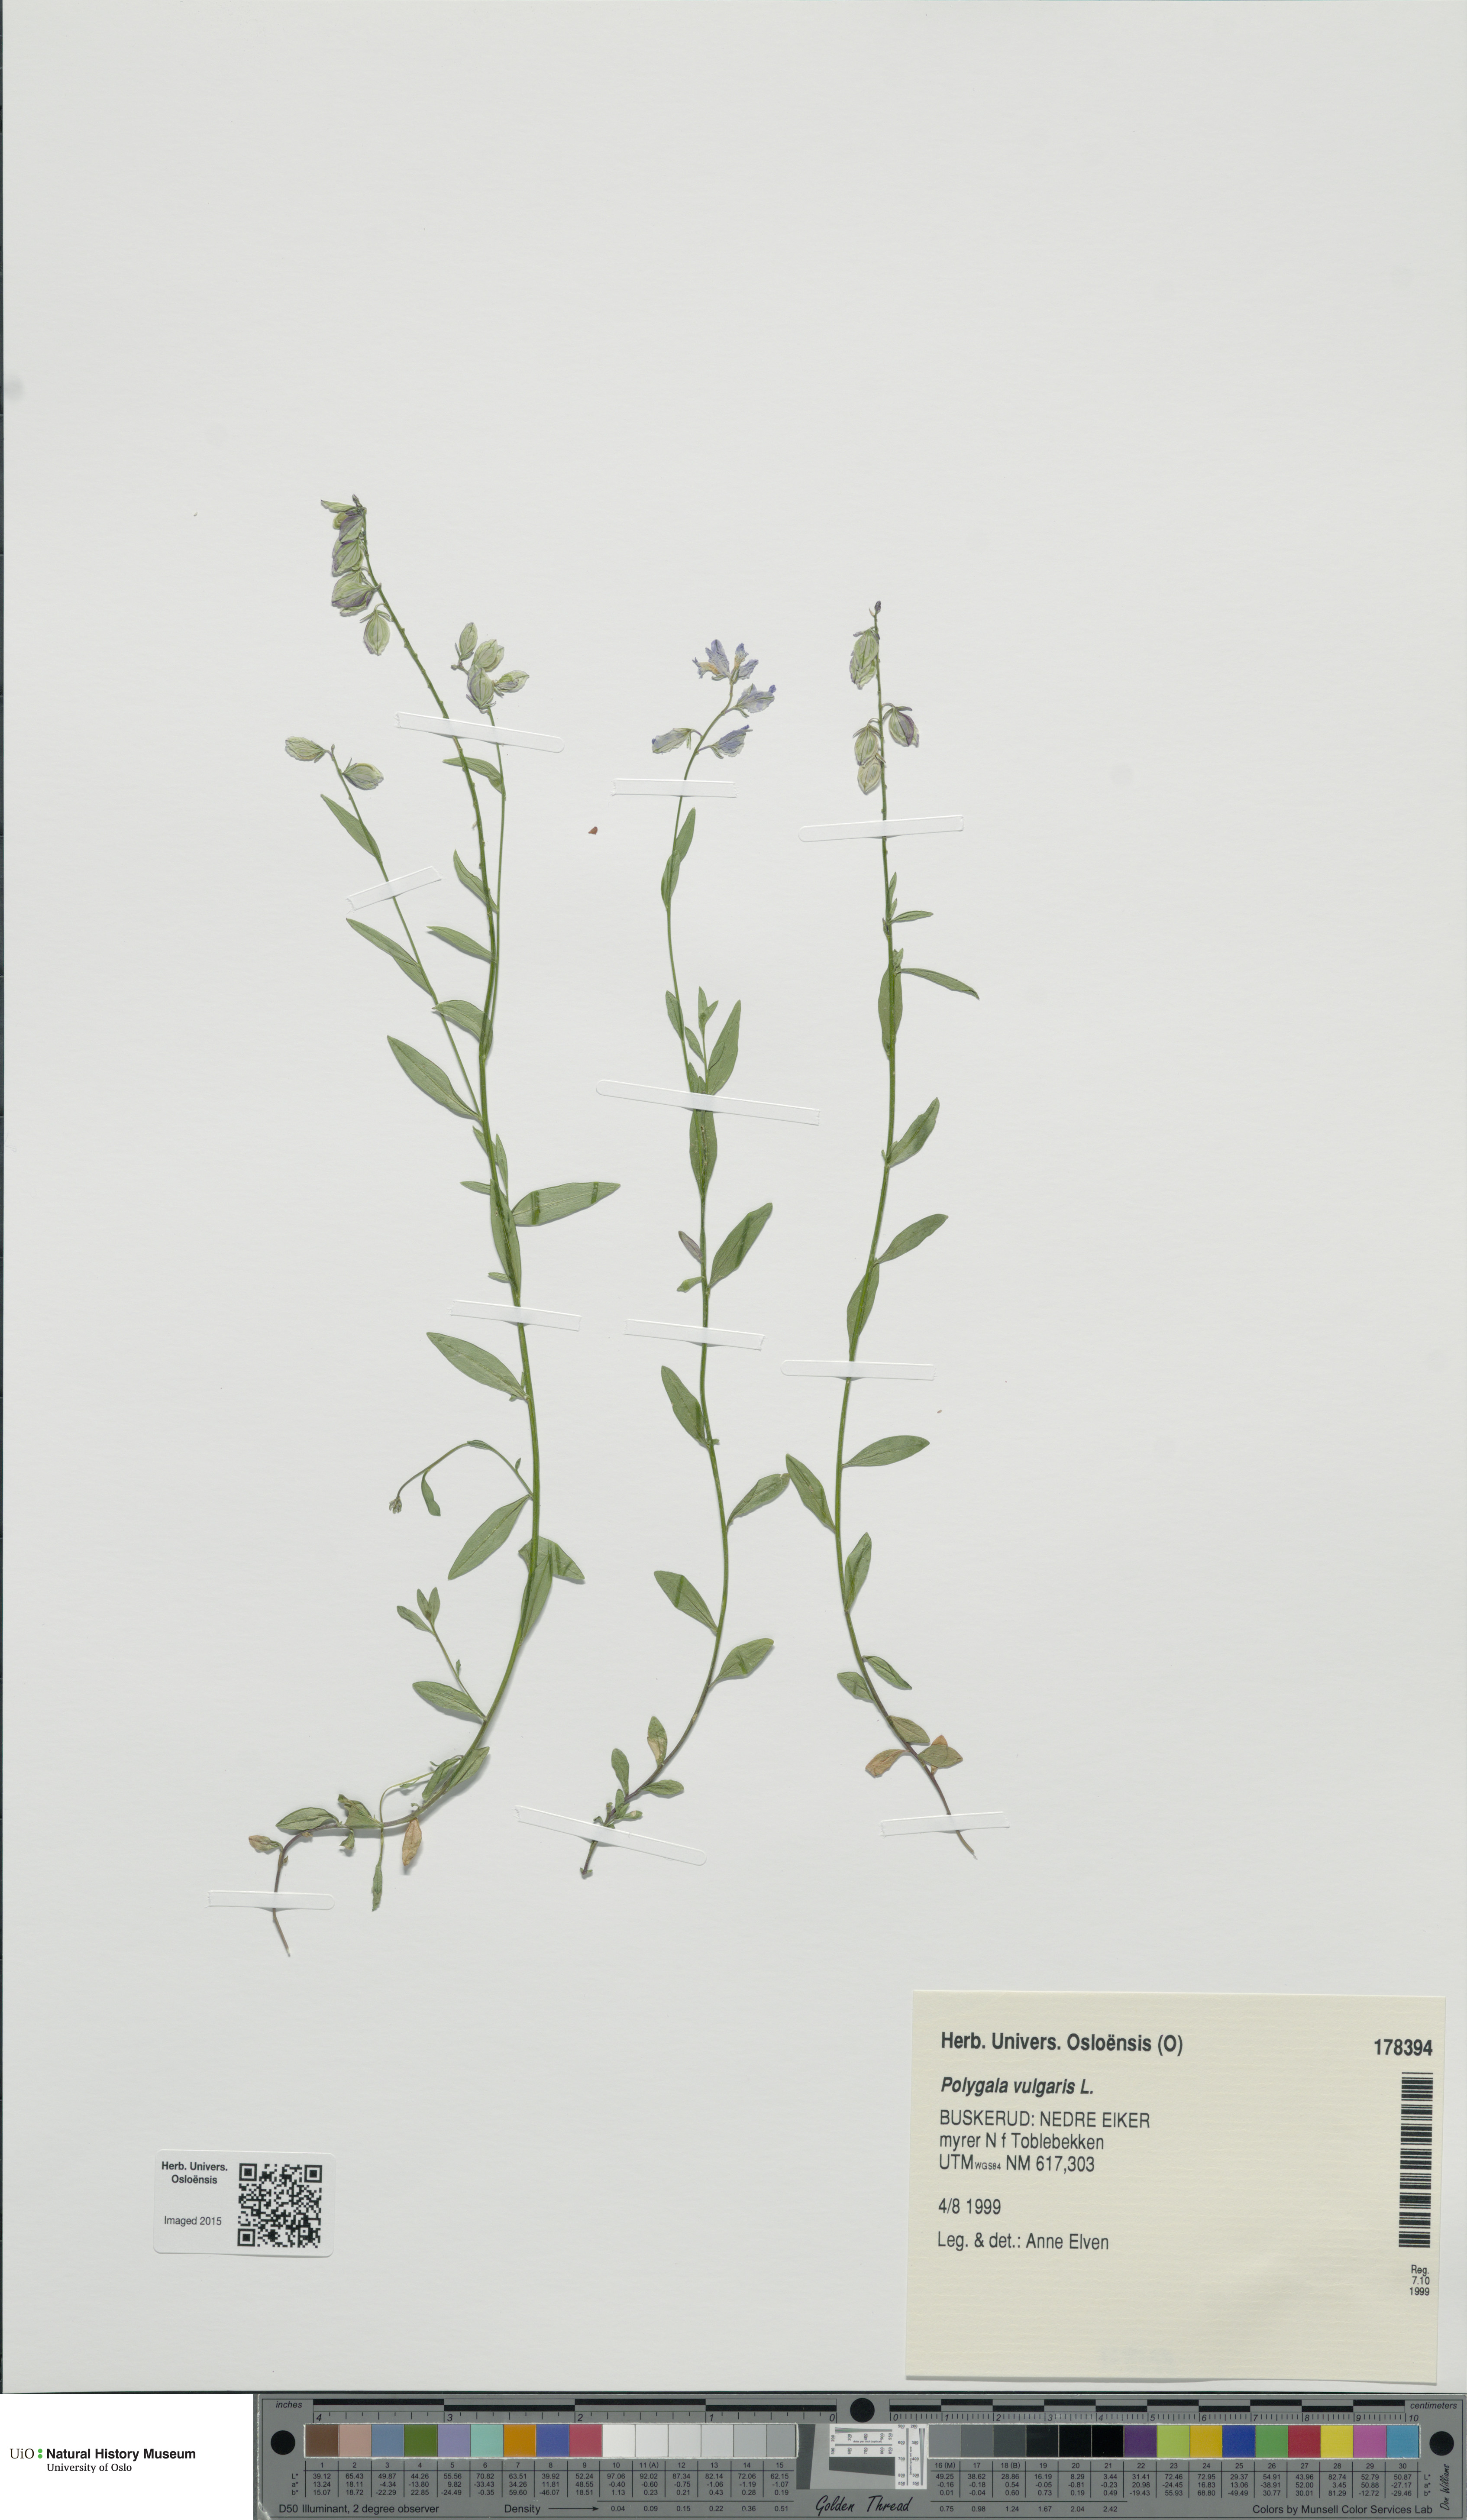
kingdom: Plantae
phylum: Tracheophyta
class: Magnoliopsida
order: Fabales
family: Polygalaceae
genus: Polygala
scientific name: Polygala vulgaris
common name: Common milkwort
